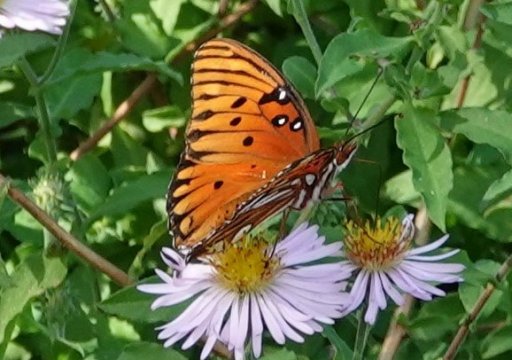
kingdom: Animalia
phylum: Arthropoda
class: Insecta
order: Lepidoptera
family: Nymphalidae
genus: Dione
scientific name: Dione vanillae
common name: Gulf Fritillary
